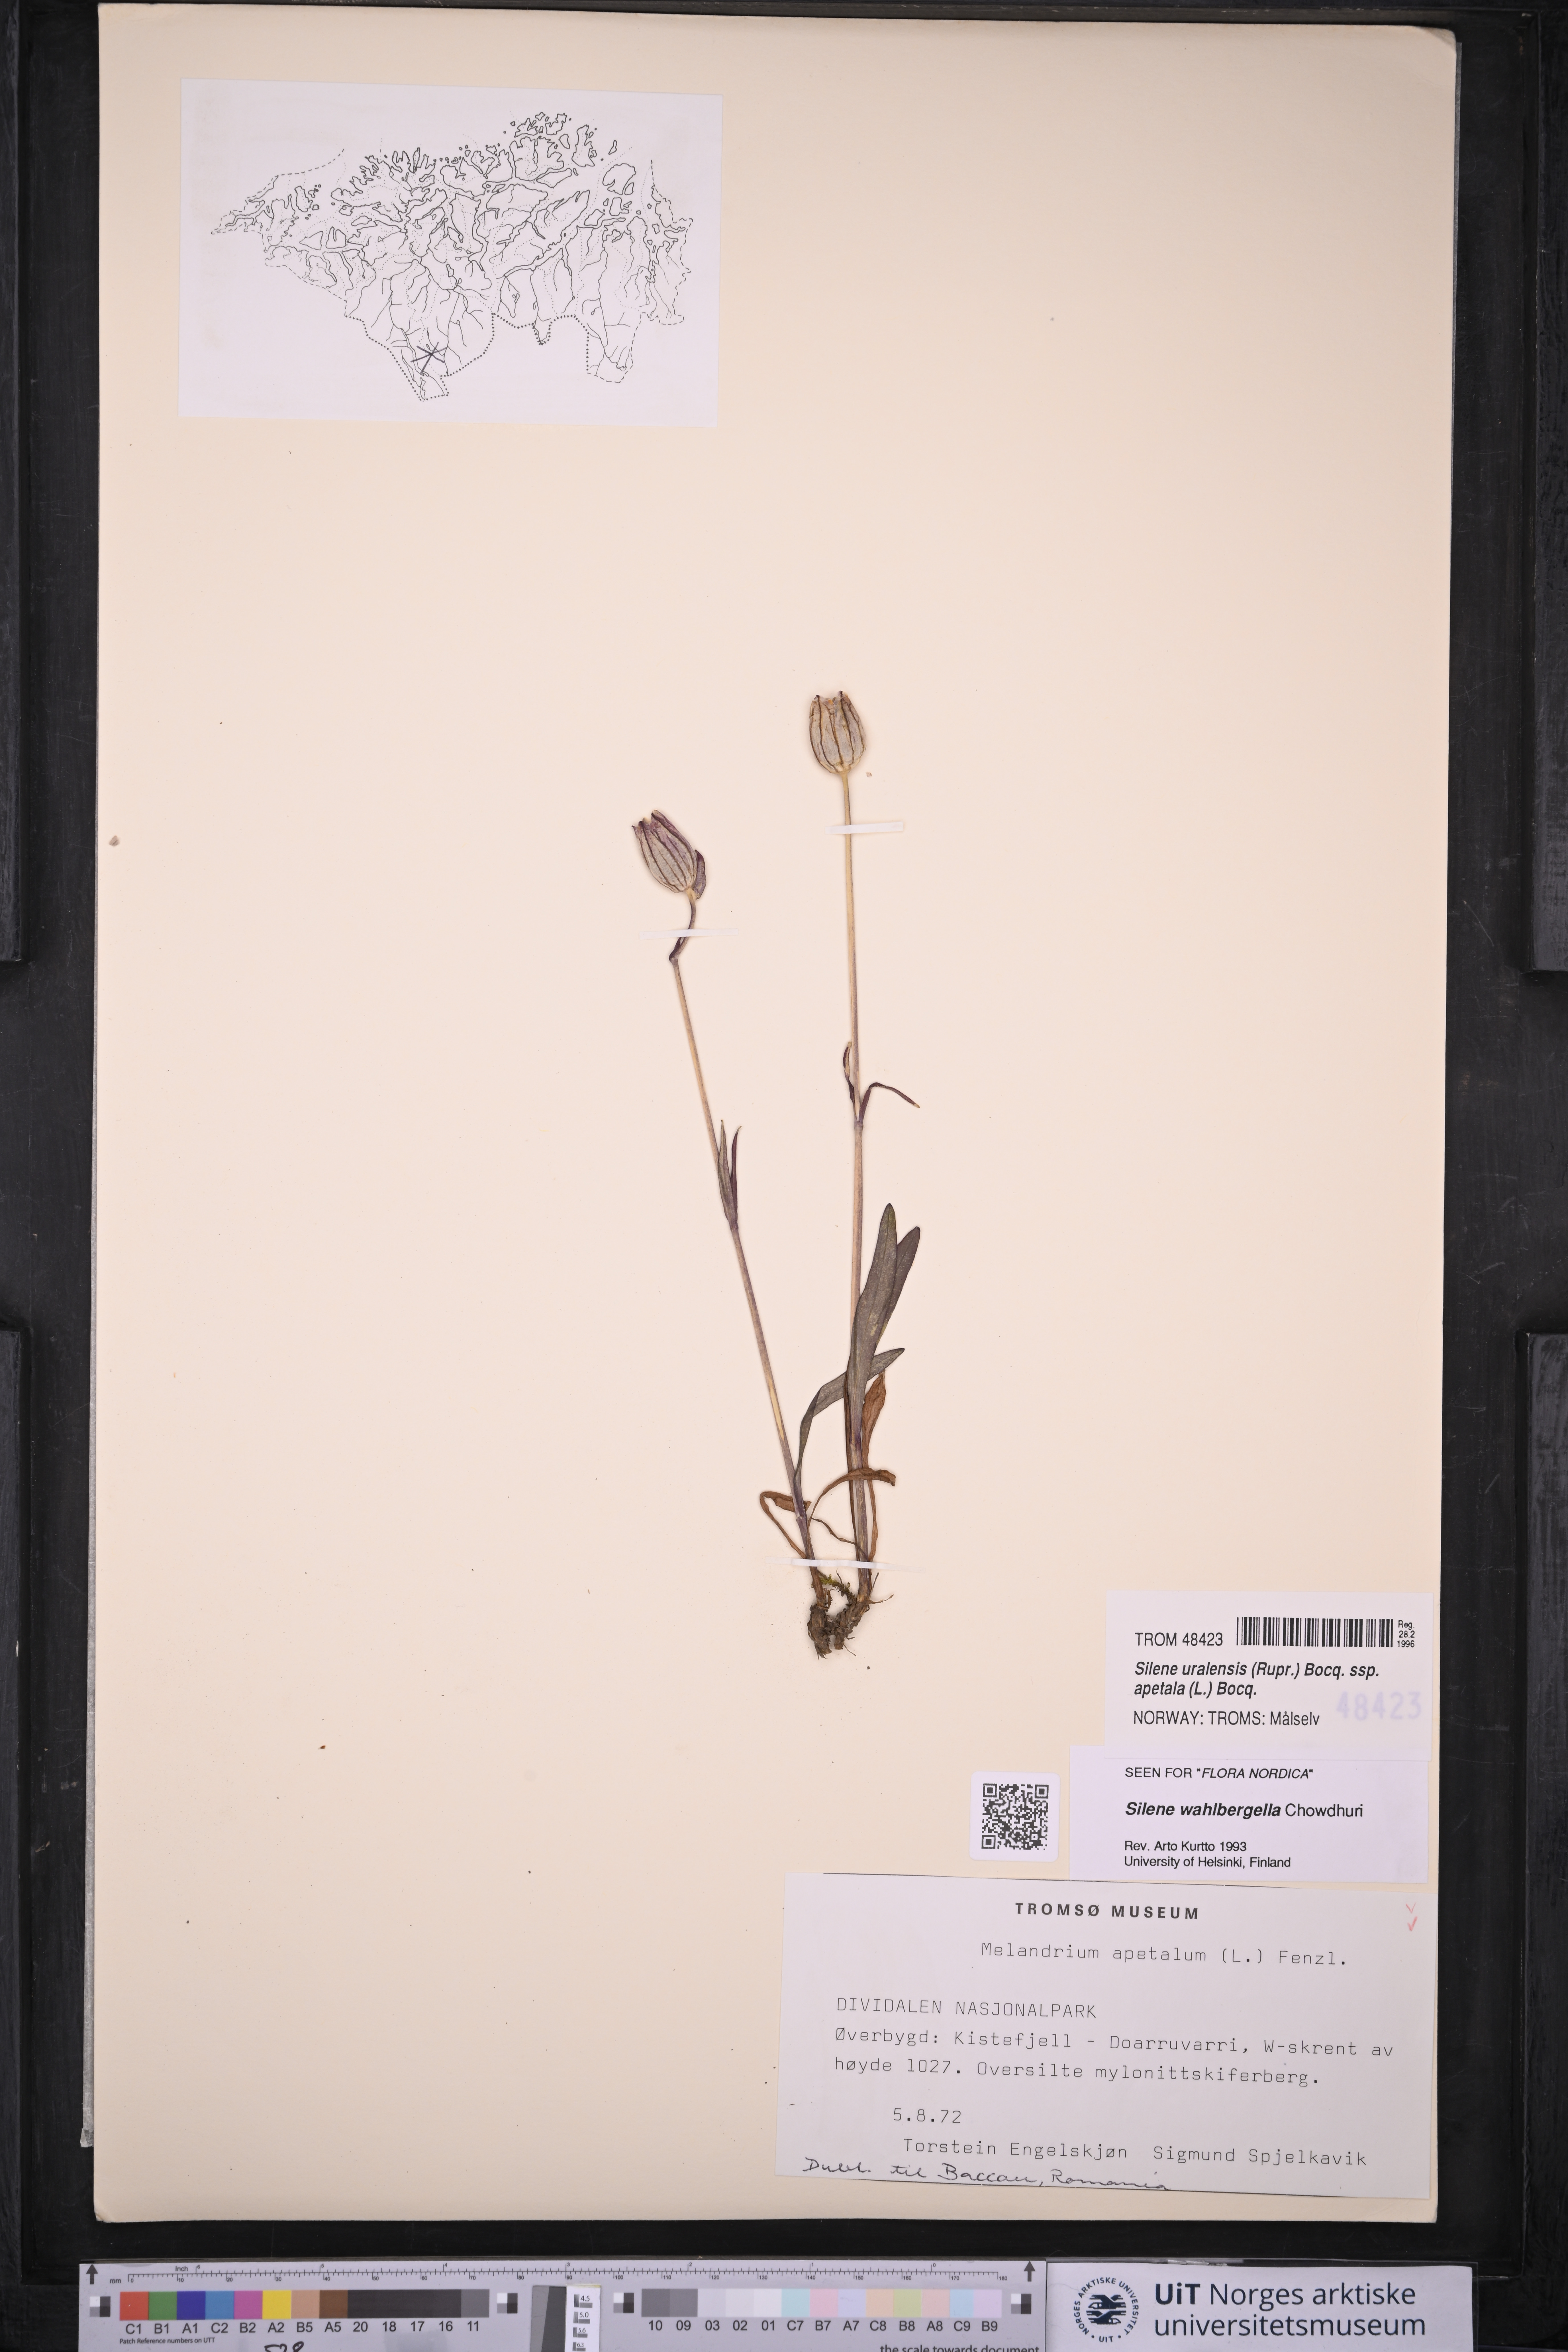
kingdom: Plantae
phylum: Tracheophyta
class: Magnoliopsida
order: Caryophyllales
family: Caryophyllaceae
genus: Silene
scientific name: Silene wahlbergella
